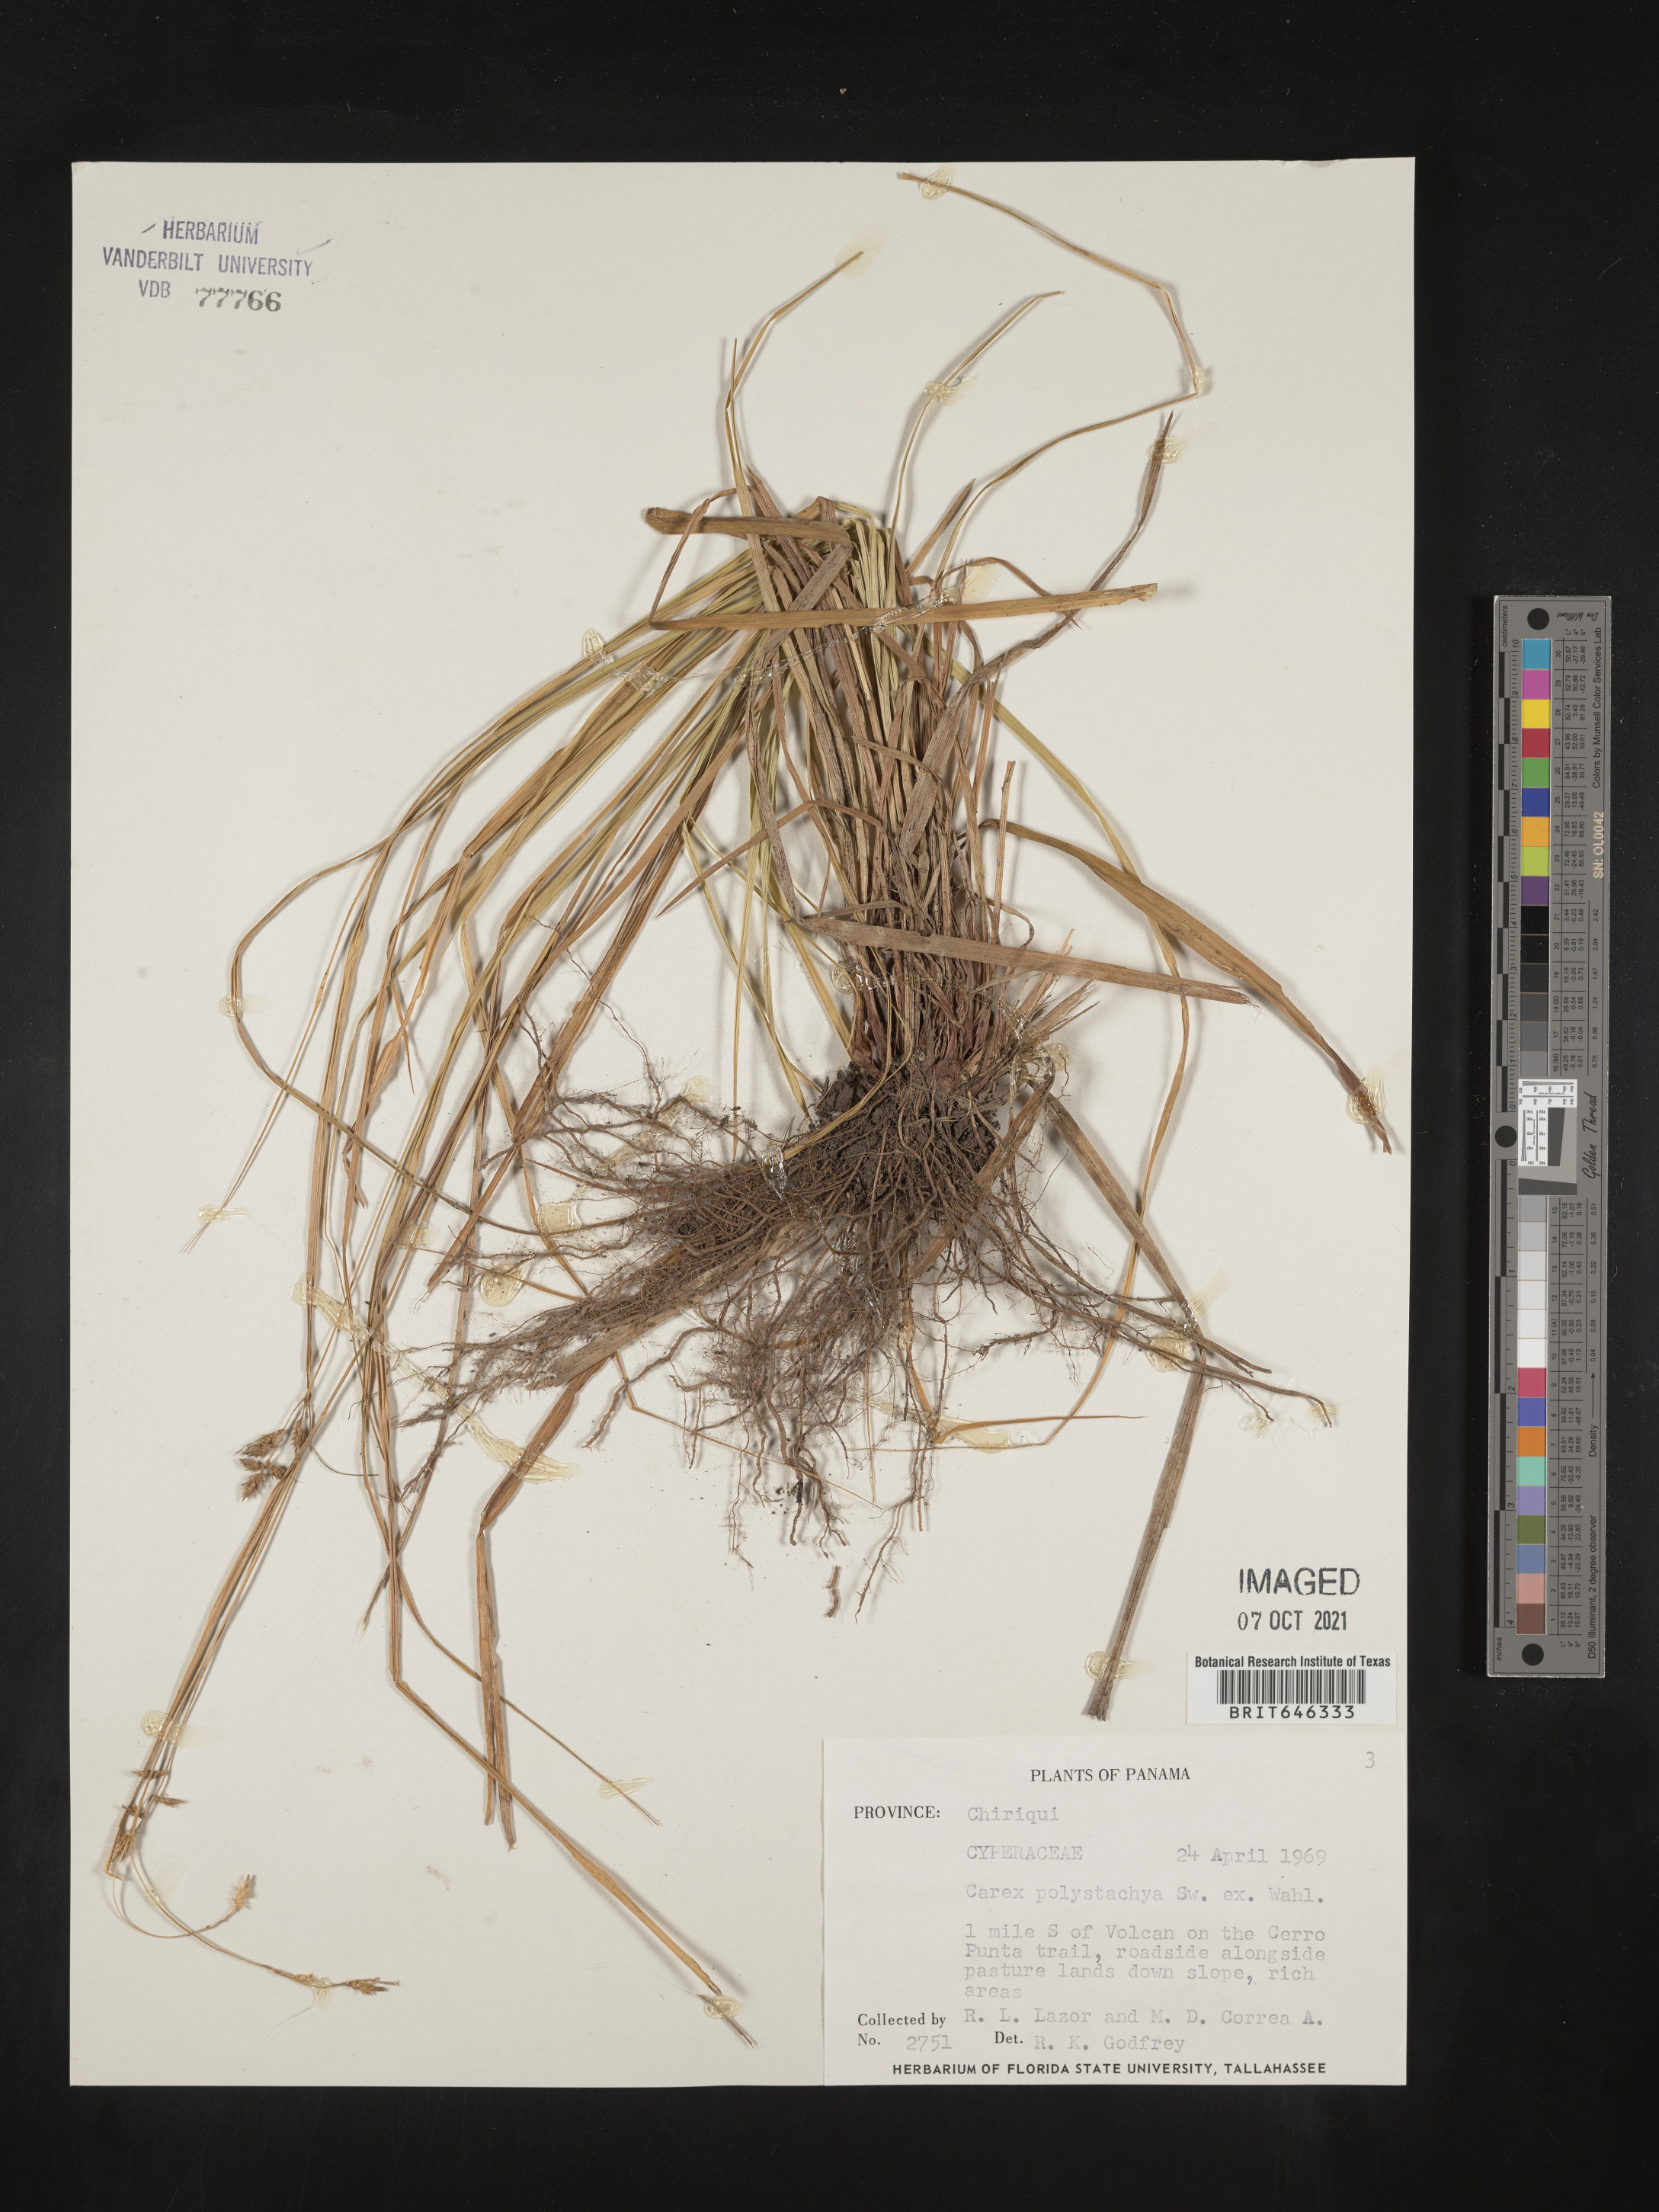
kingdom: Plantae
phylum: Tracheophyta
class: Liliopsida
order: Poales
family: Cyperaceae
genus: Carex
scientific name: Carex polystachya
